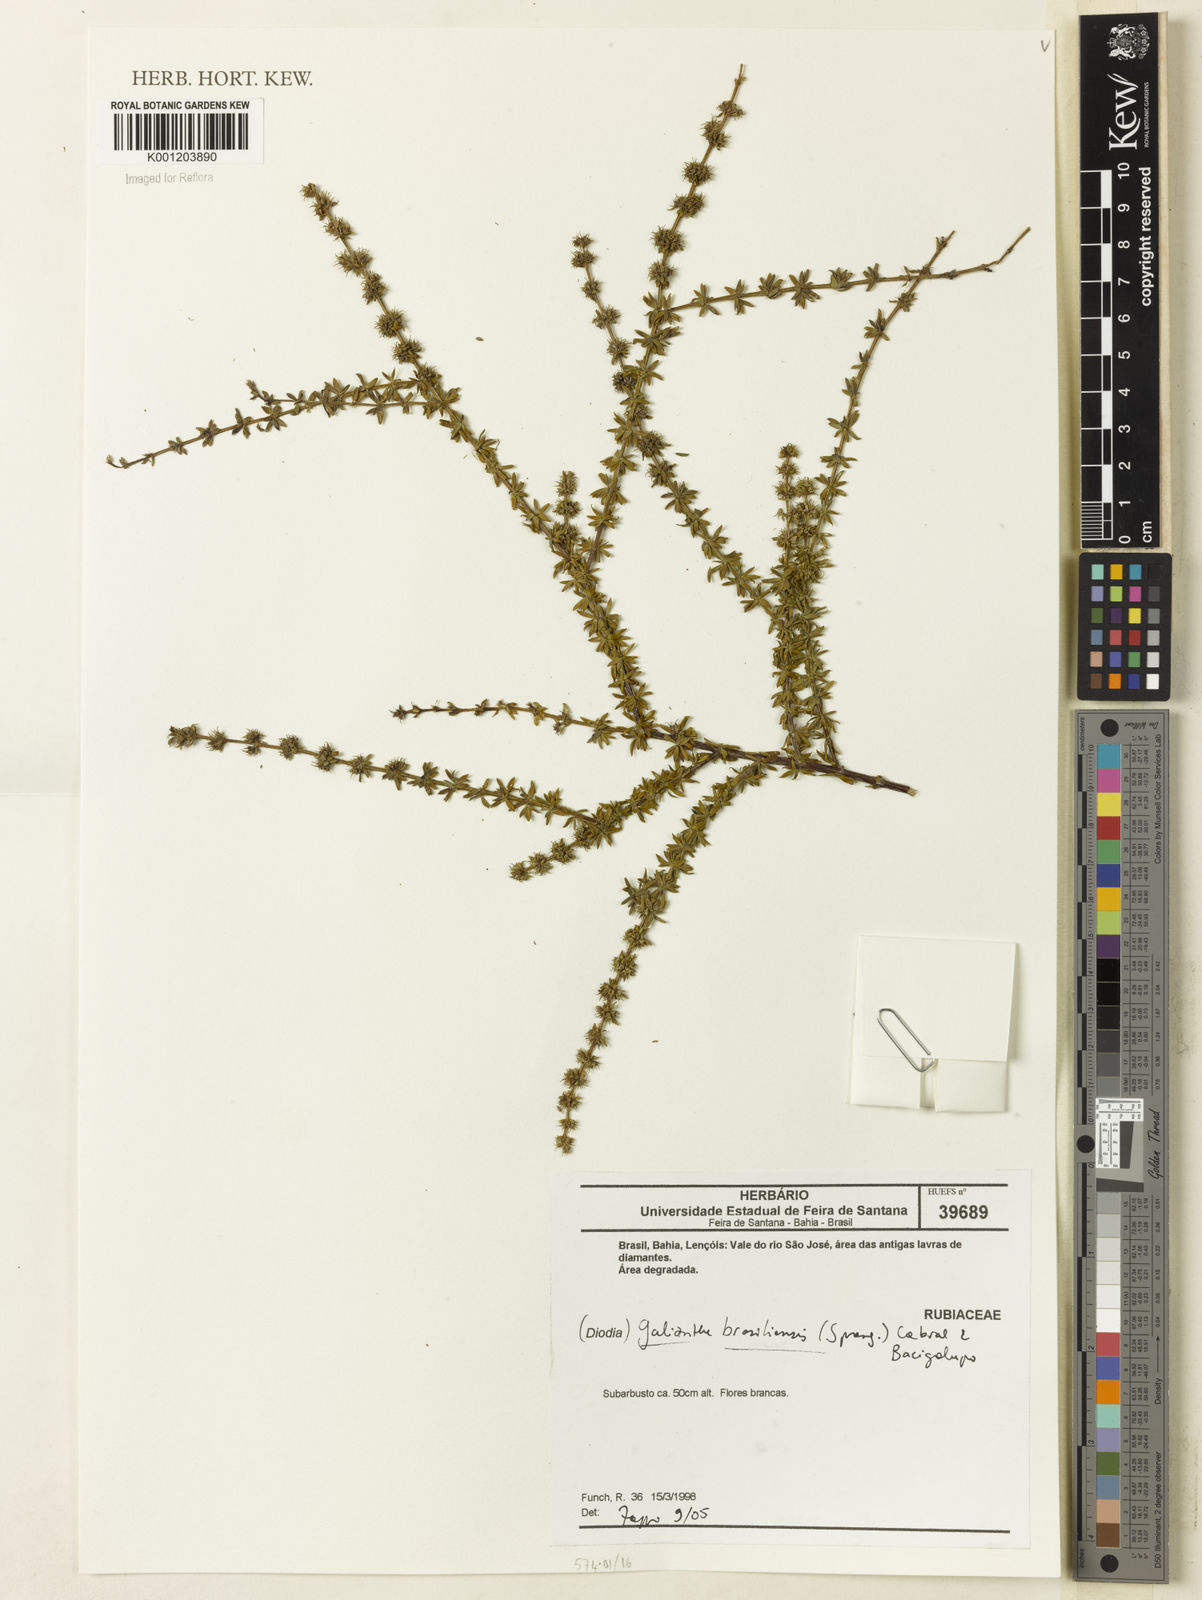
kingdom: Plantae
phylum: Tracheophyta
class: Magnoliopsida
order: Gentianales
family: Rubiaceae
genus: Galianthe
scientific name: Galianthe brasiliensis
